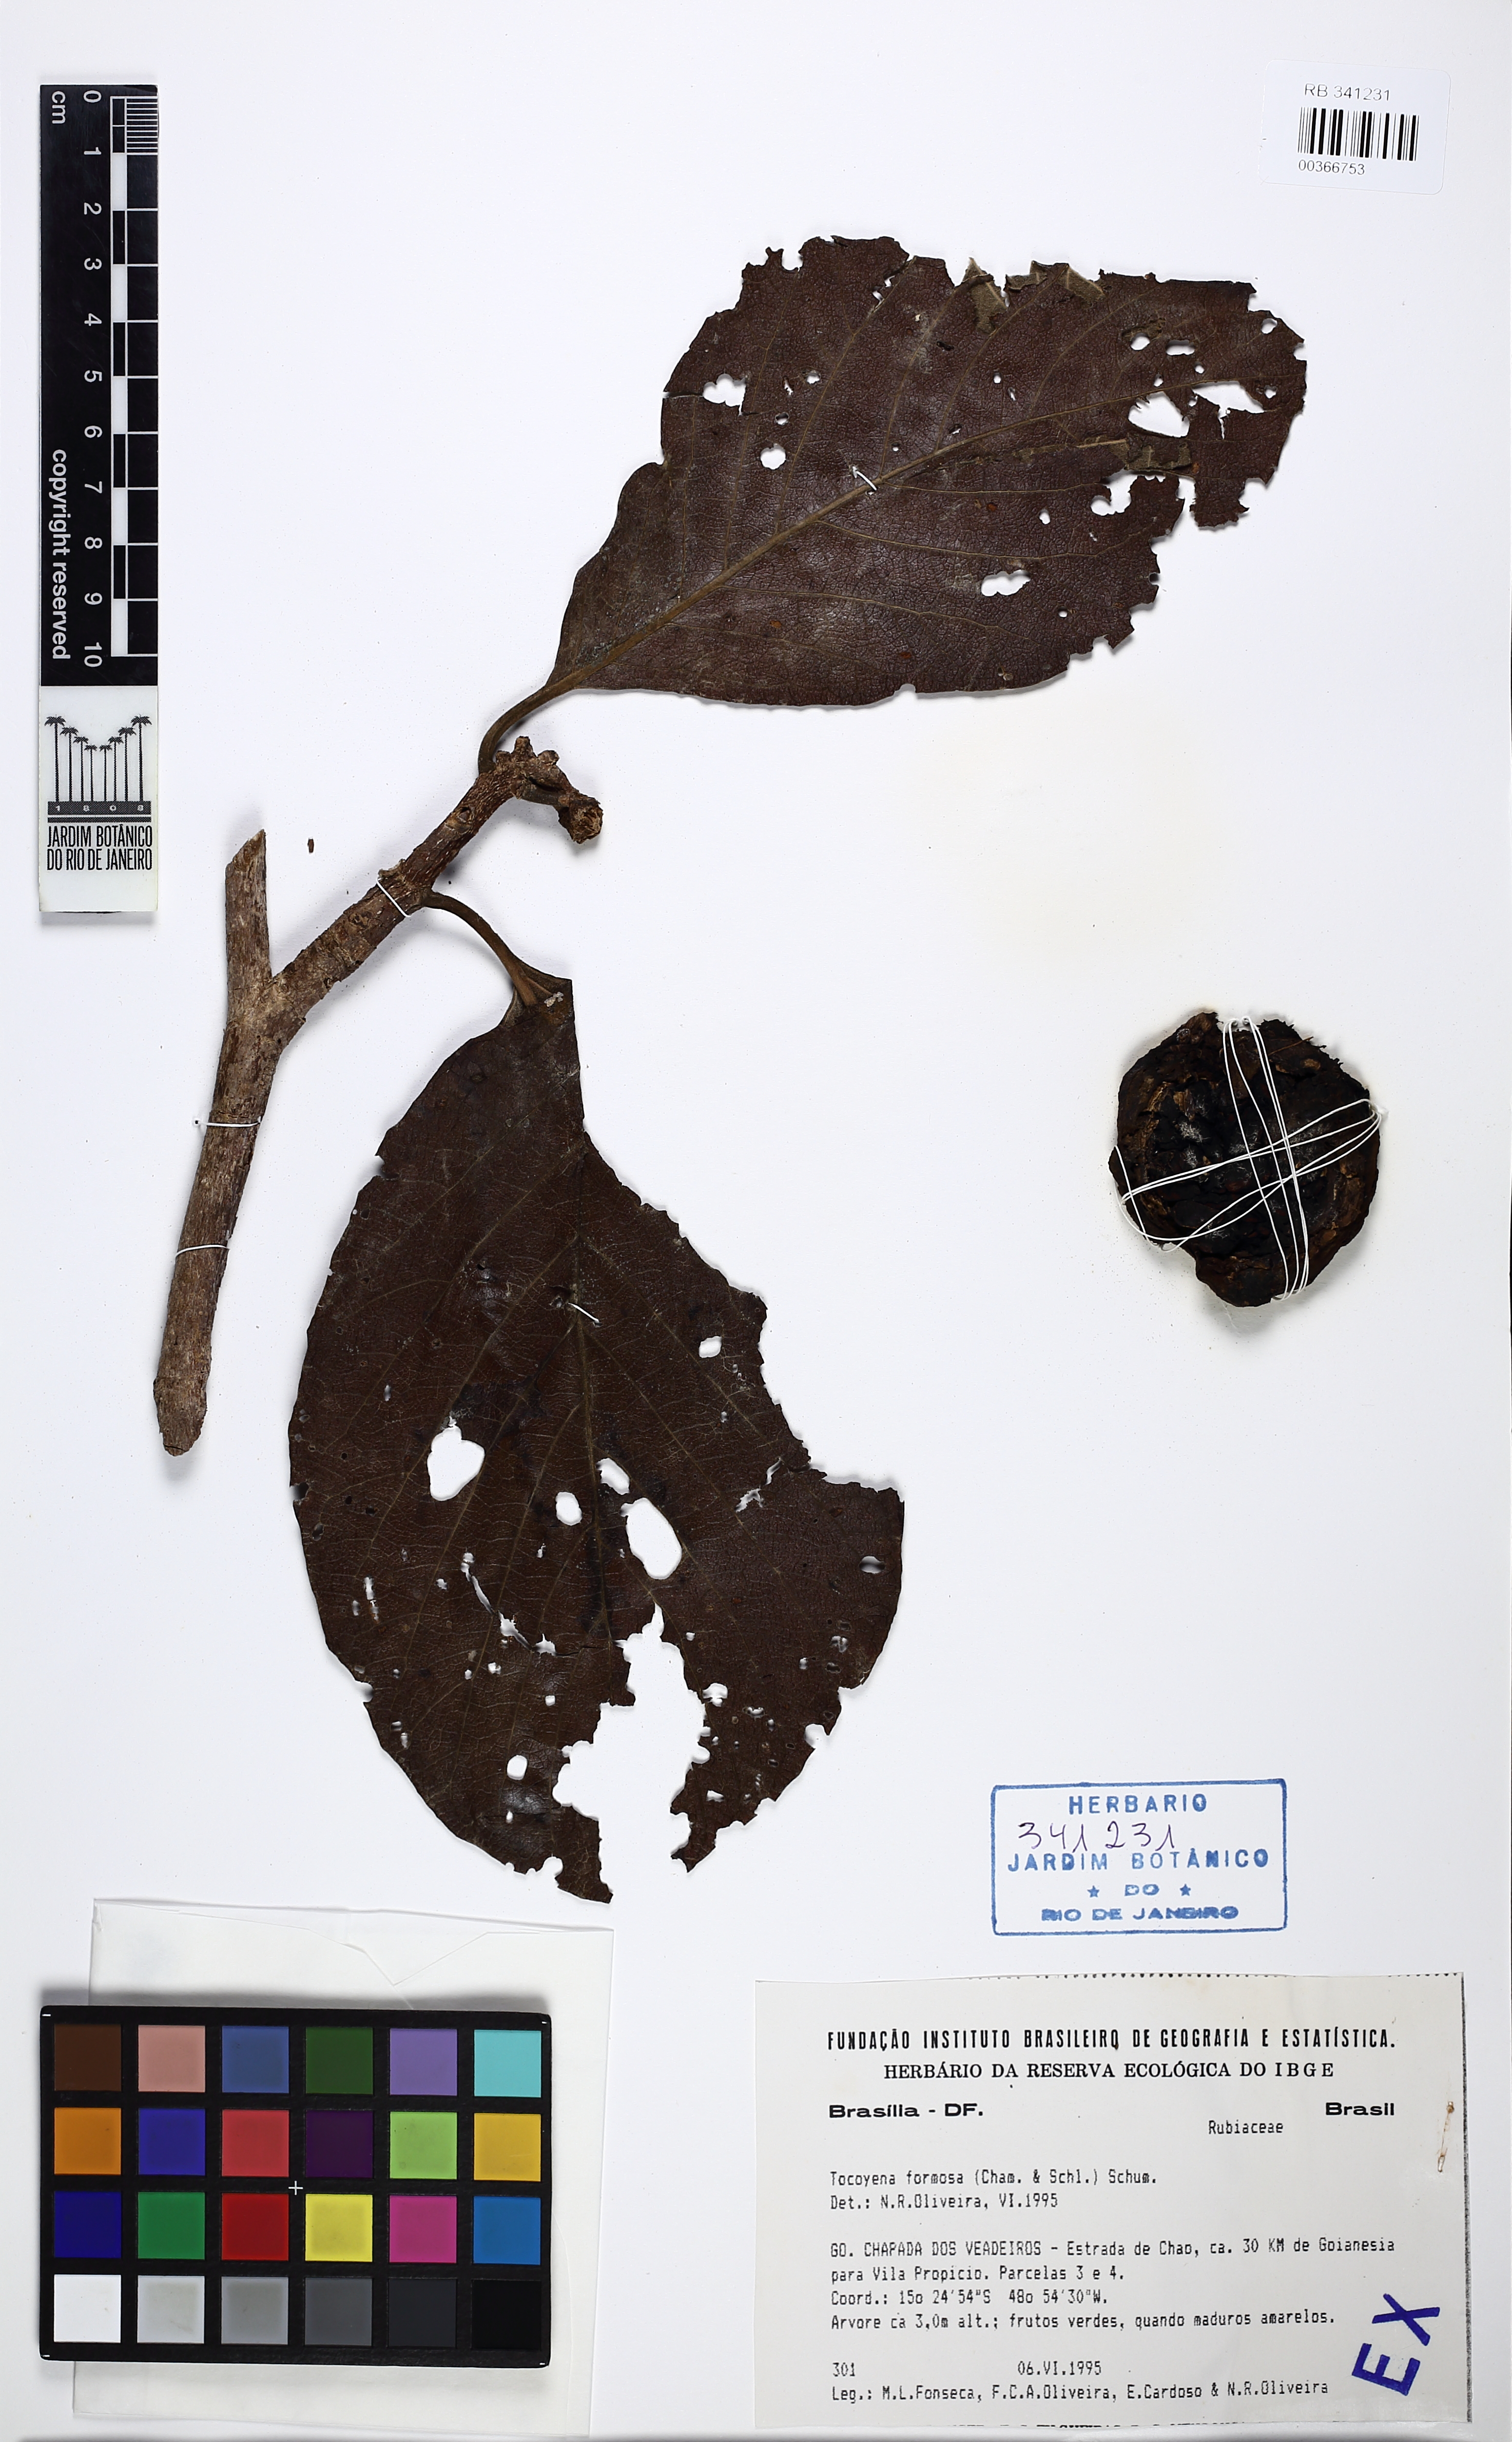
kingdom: Plantae
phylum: Tracheophyta
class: Magnoliopsida
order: Gentianales
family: Rubiaceae
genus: Tocoyena
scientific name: Tocoyena formosa
